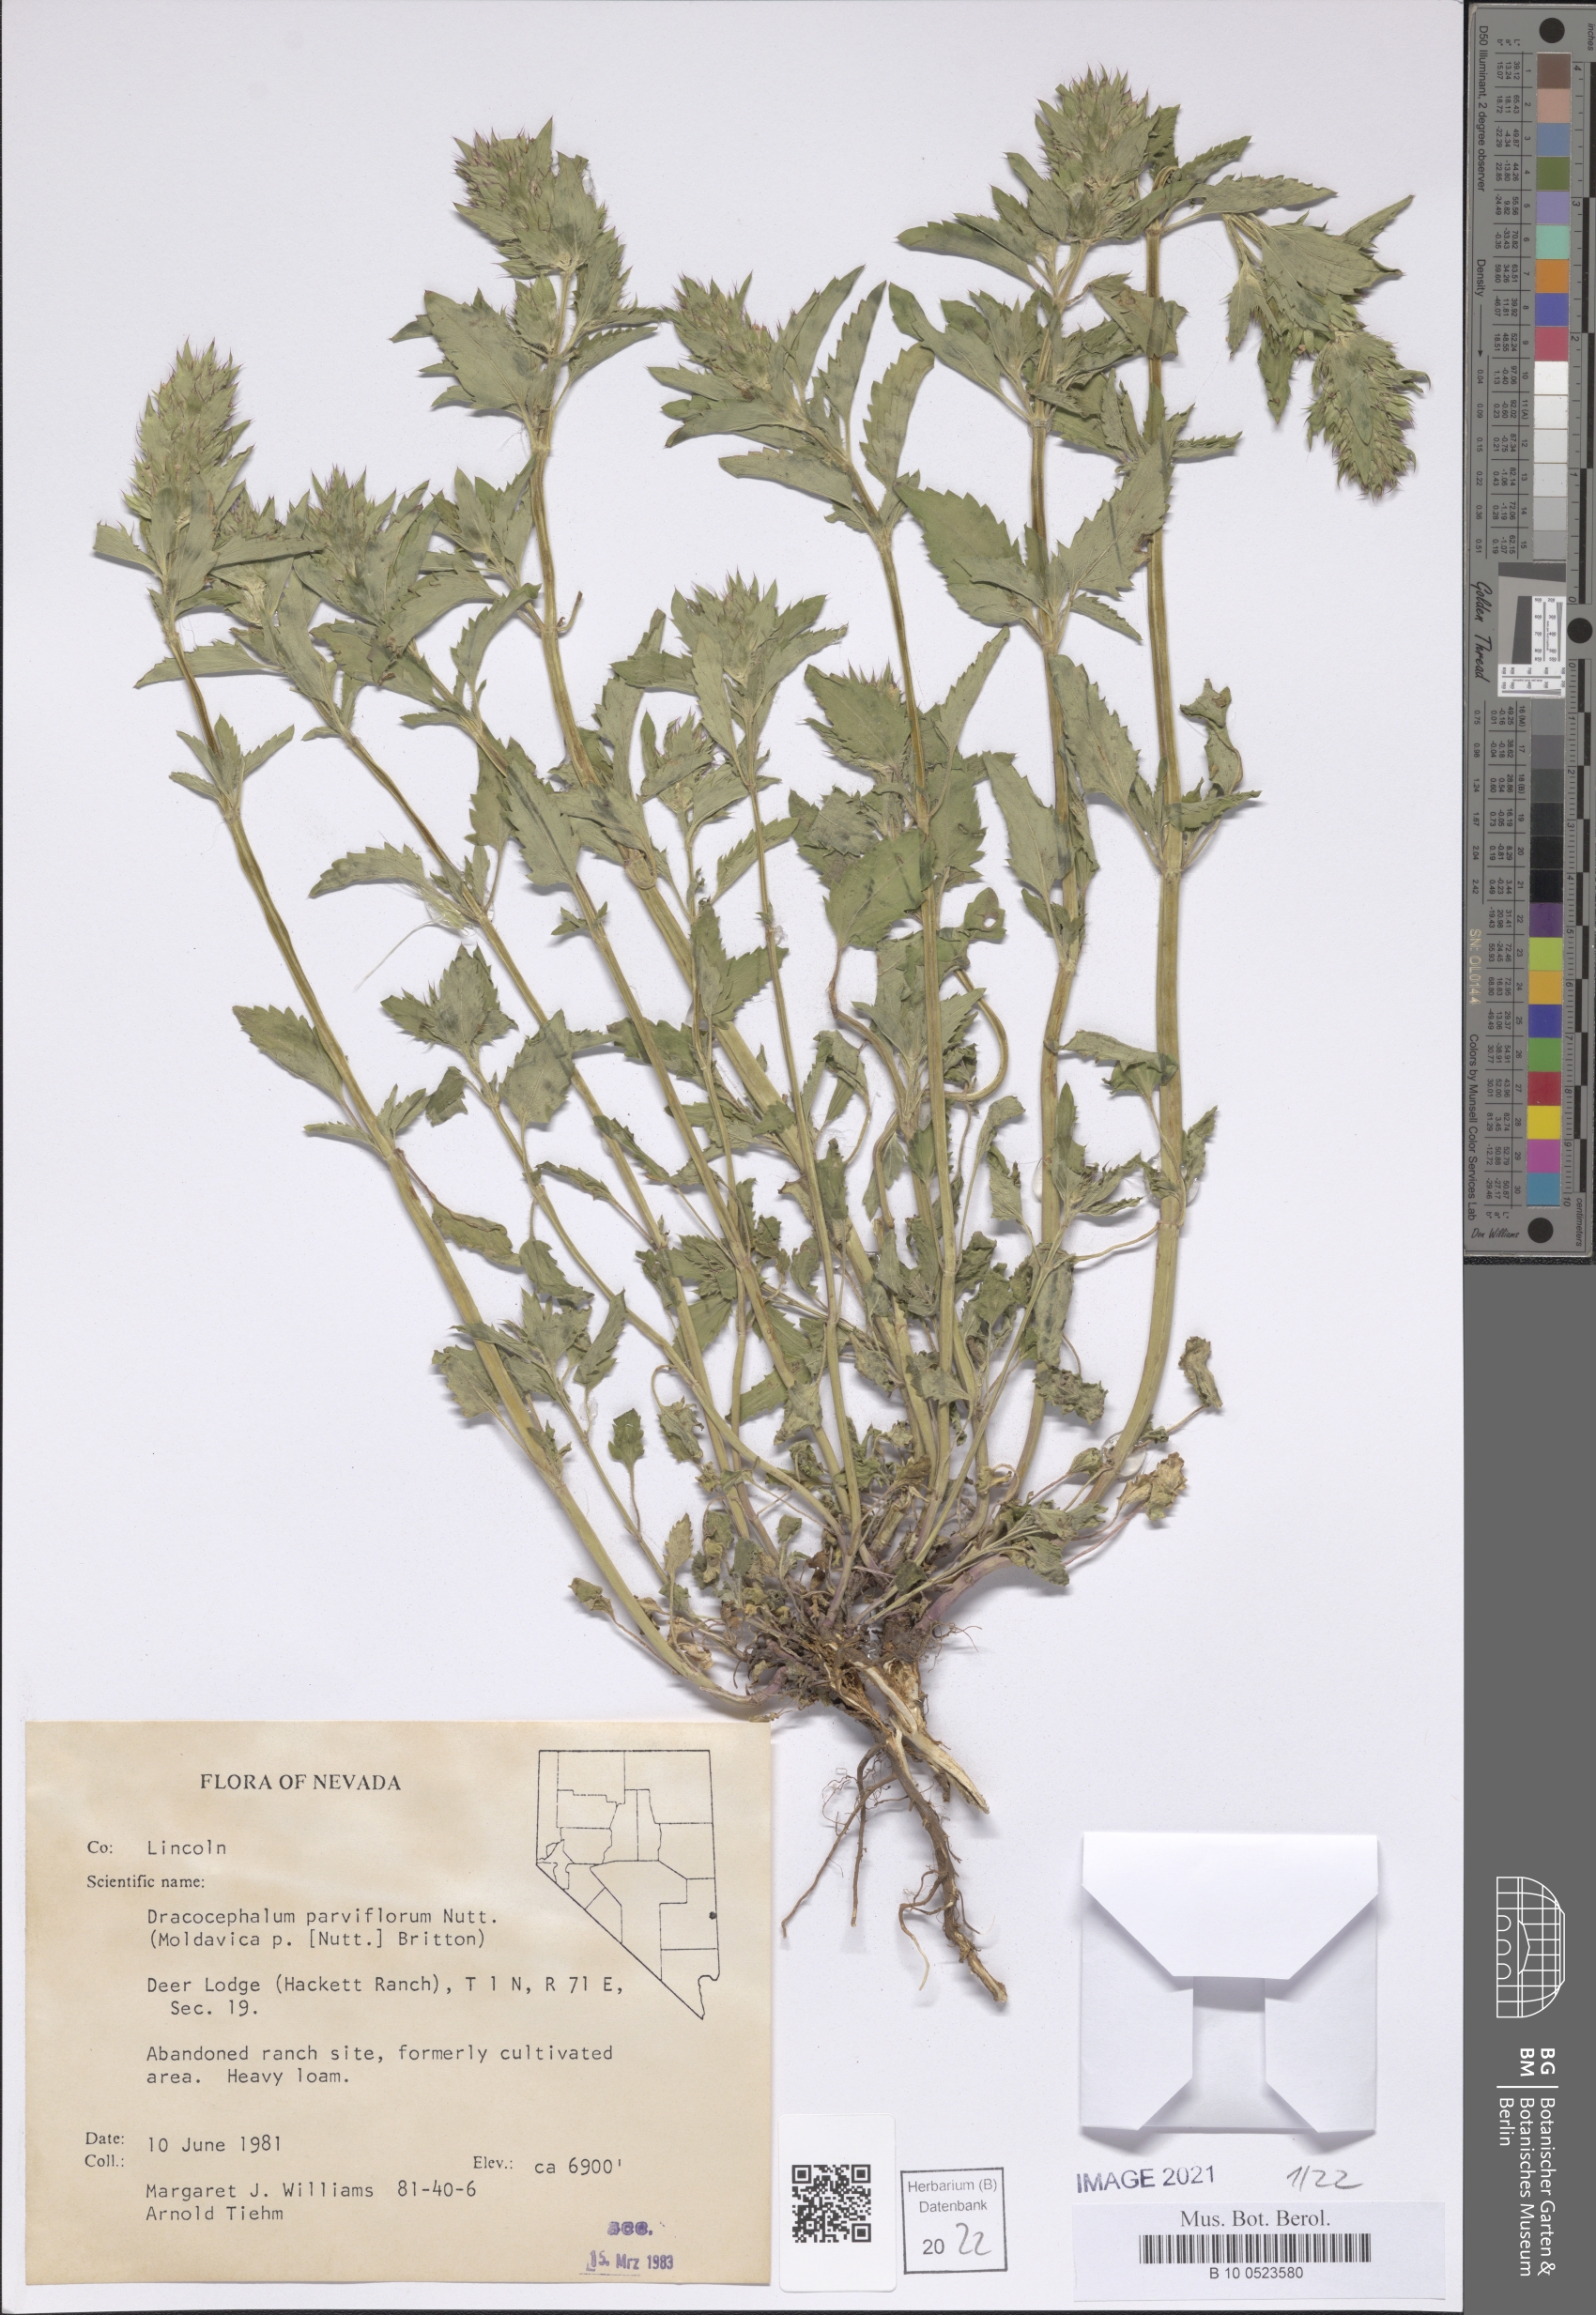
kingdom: Plantae
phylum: Tracheophyta
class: Magnoliopsida
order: Lamiales
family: Lamiaceae
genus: Dracocephalum
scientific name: Dracocephalum parviflorum
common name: American dragonhead
